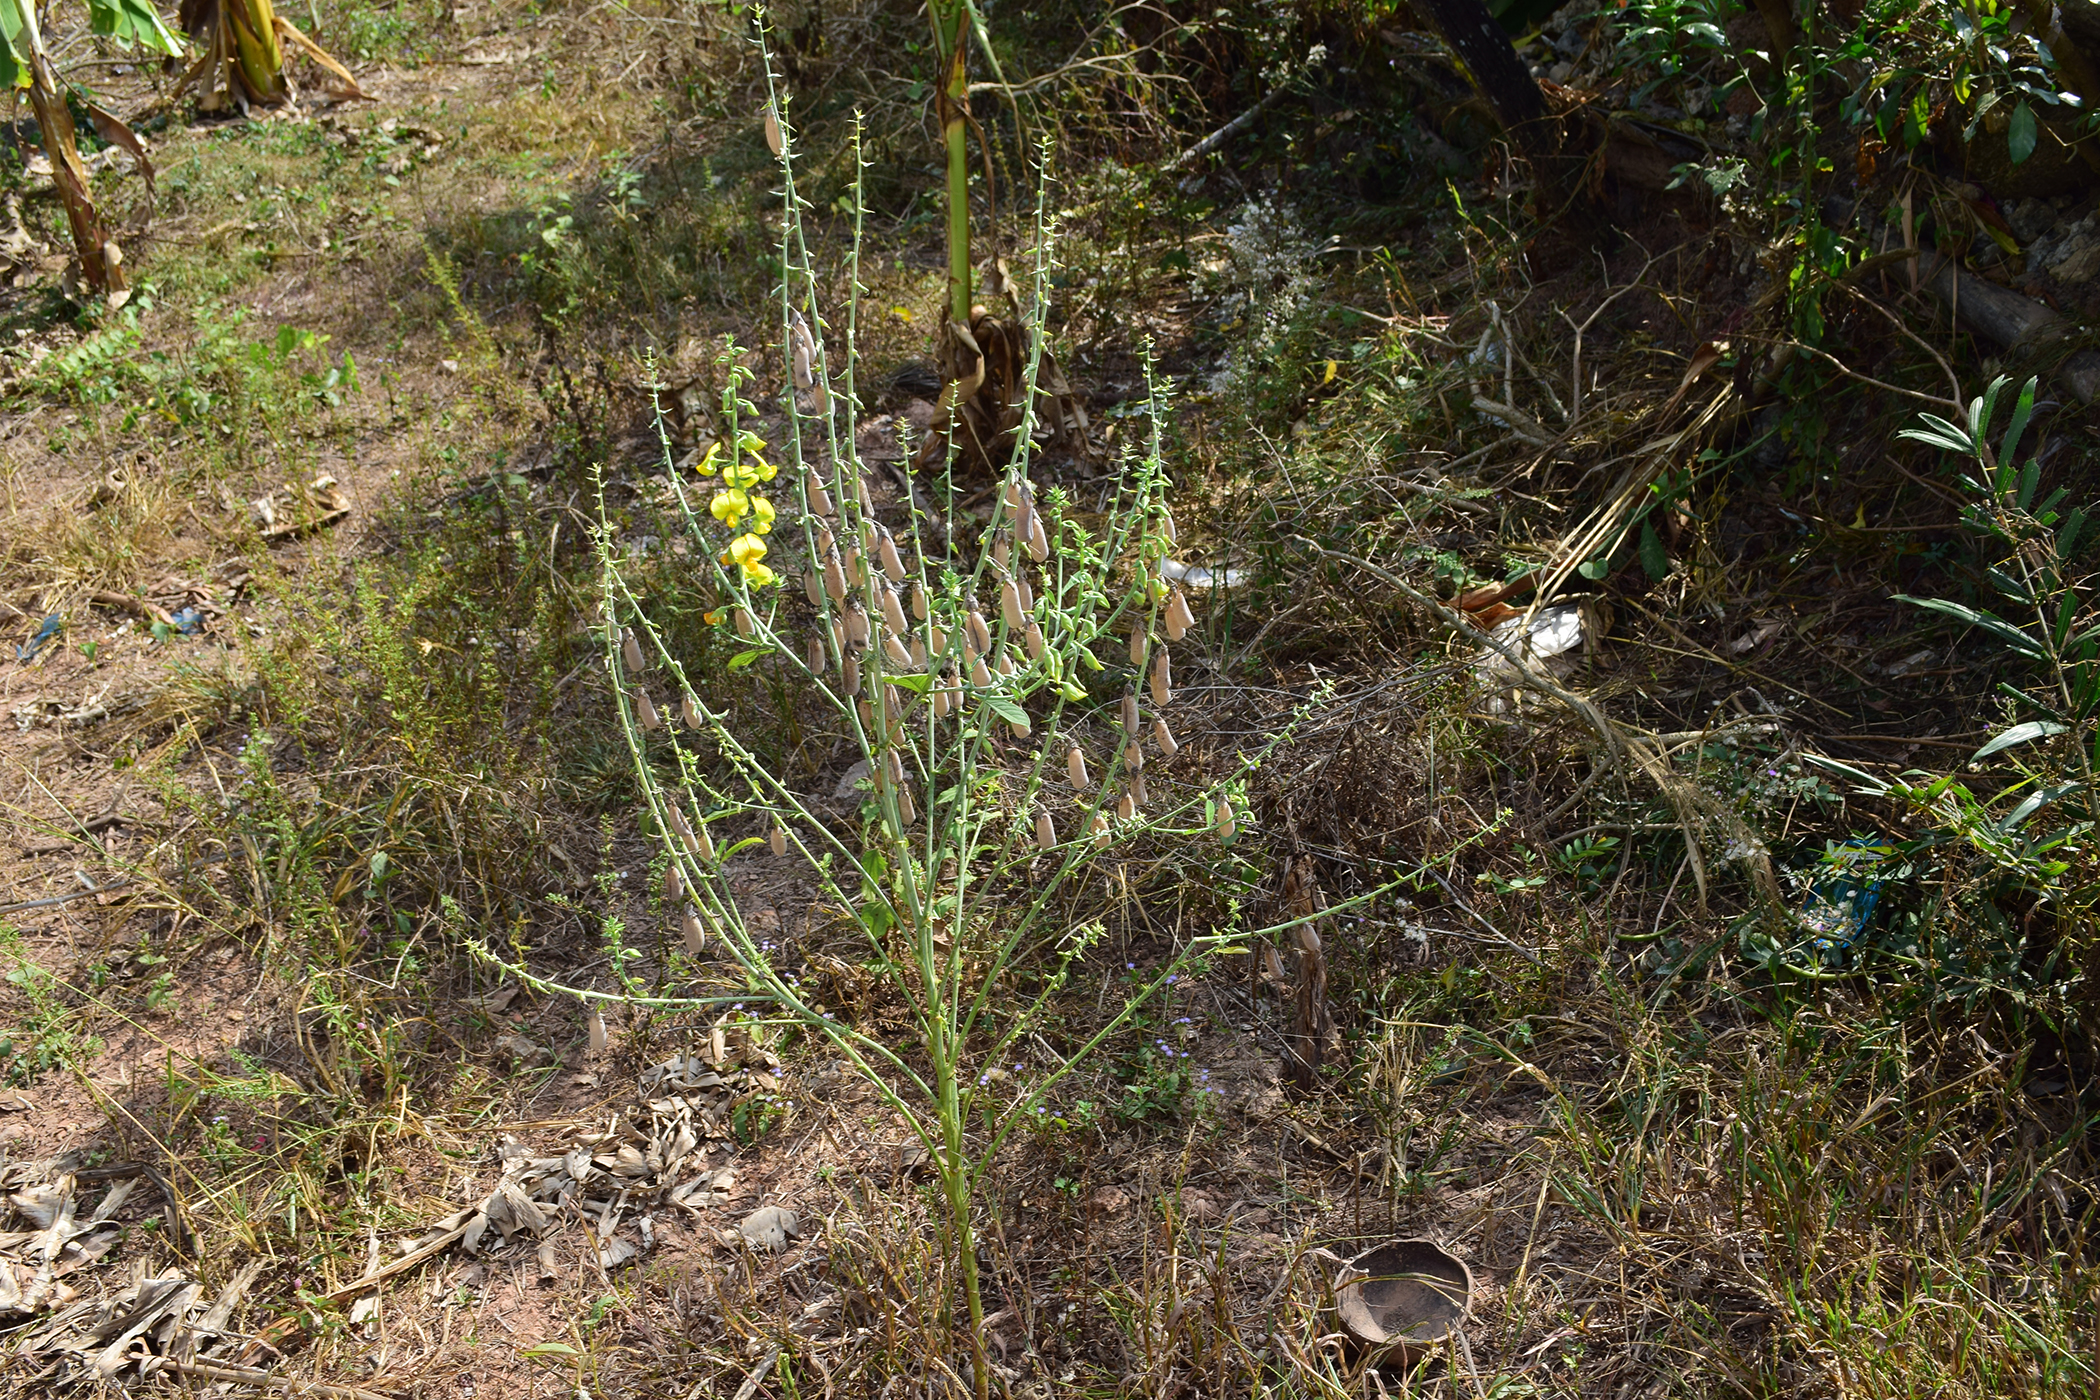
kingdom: Plantae
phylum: Tracheophyta
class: Magnoliopsida
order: Fabales
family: Fabaceae
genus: Crotalaria
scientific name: Crotalaria spectabilis
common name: Showy rattlebox
